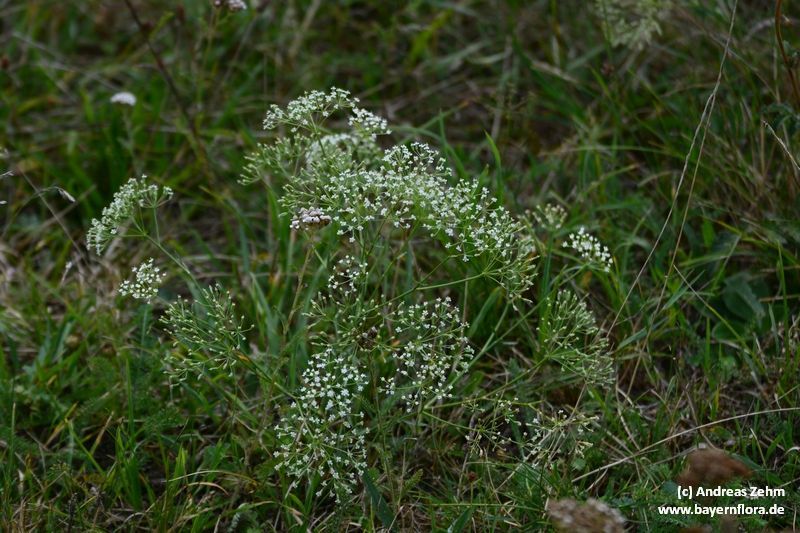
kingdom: Plantae
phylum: Tracheophyta
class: Magnoliopsida
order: Apiales
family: Apiaceae
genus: Falcaria
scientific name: Falcaria vulgaris
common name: Longleaf
